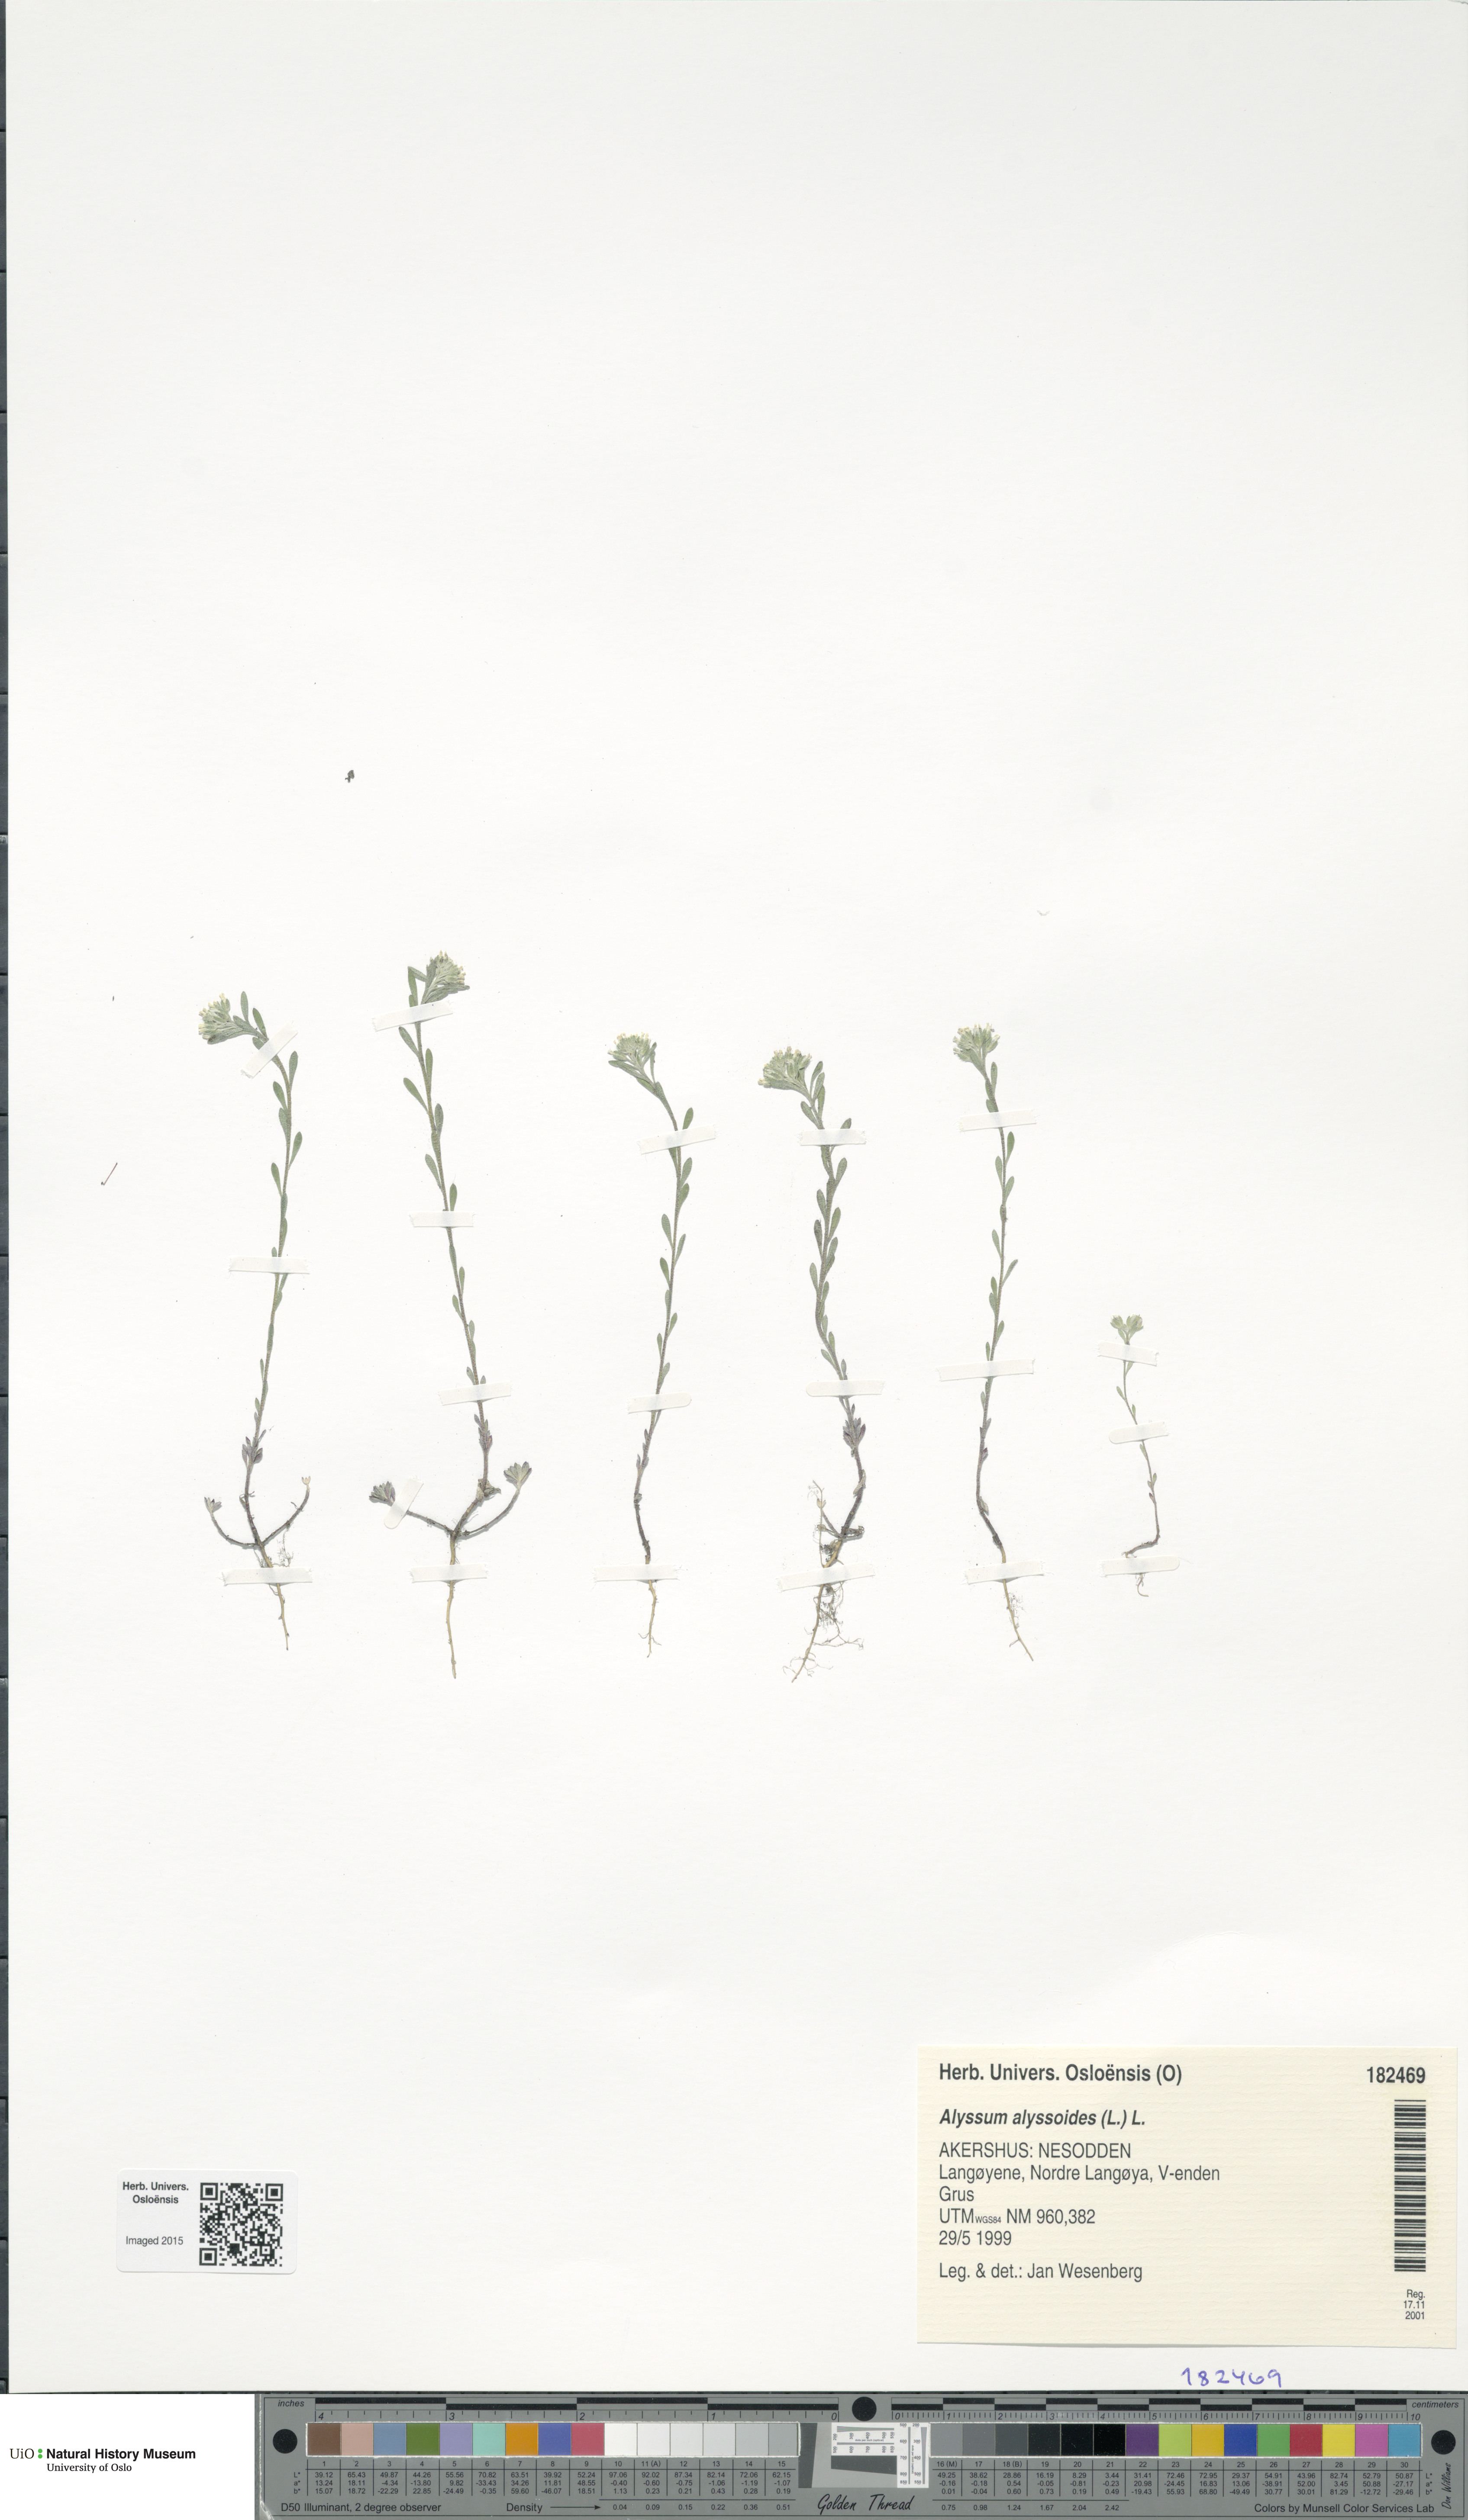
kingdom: Plantae
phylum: Tracheophyta
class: Magnoliopsida
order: Brassicales
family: Brassicaceae
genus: Alyssum
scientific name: Alyssum alyssoides
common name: Small alison
